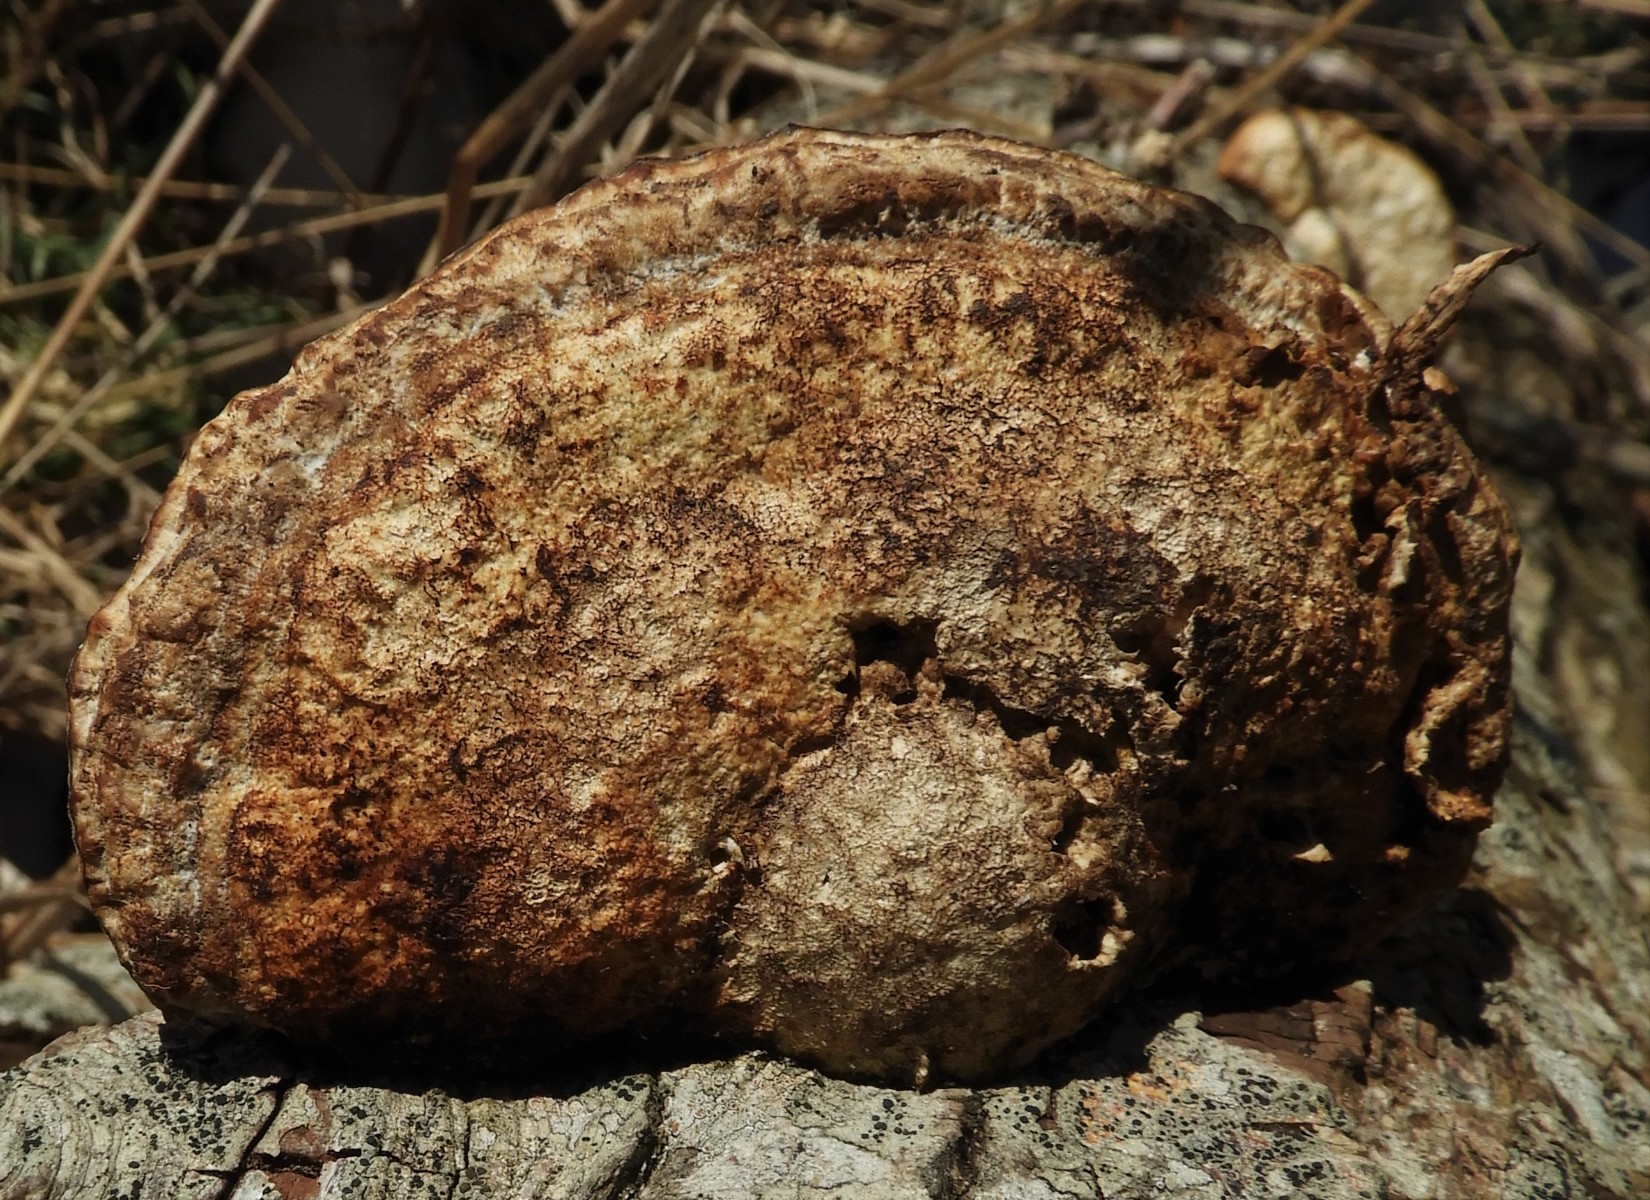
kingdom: Fungi
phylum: Basidiomycota
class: Agaricomycetes
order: Polyporales
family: Polyporaceae
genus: Daedaleopsis
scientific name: Daedaleopsis confragosa
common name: rødmende læderporesvamp
